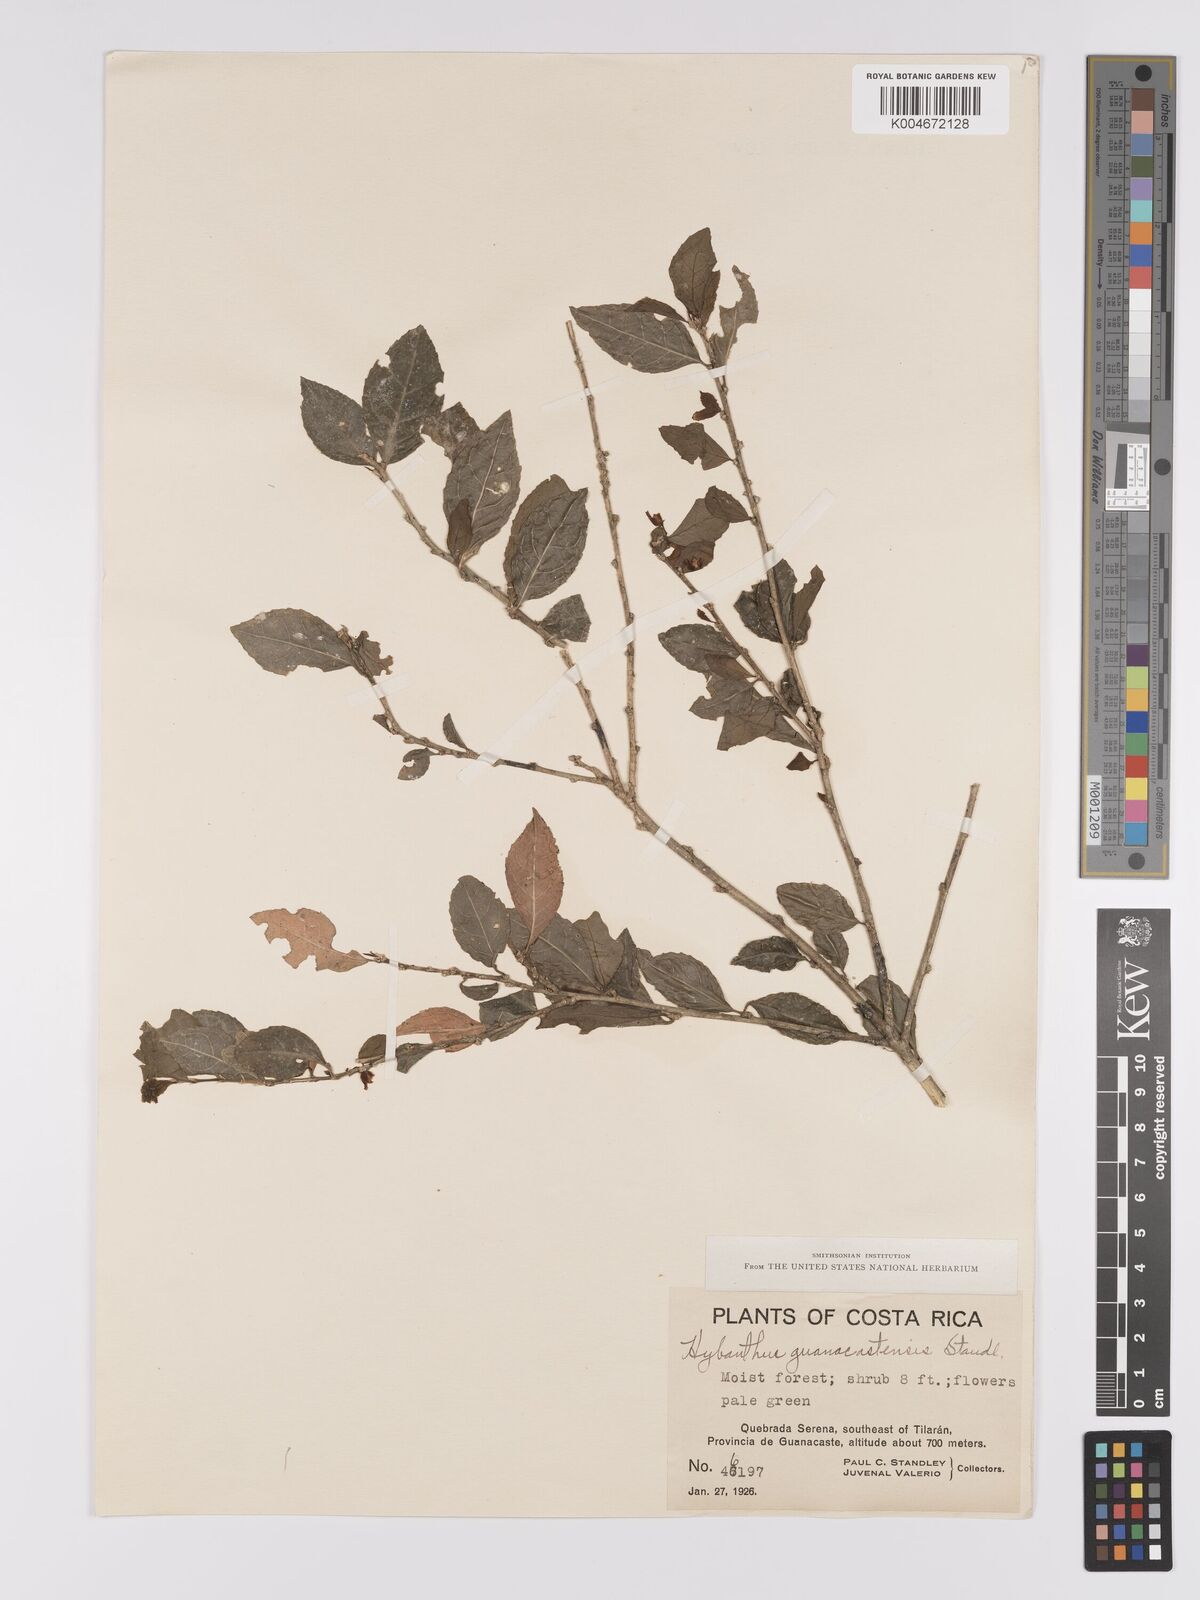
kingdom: Plantae
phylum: Tracheophyta
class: Magnoliopsida
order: Malpighiales
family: Violaceae
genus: Hybanthus
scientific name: Hybanthus guanacastensis
